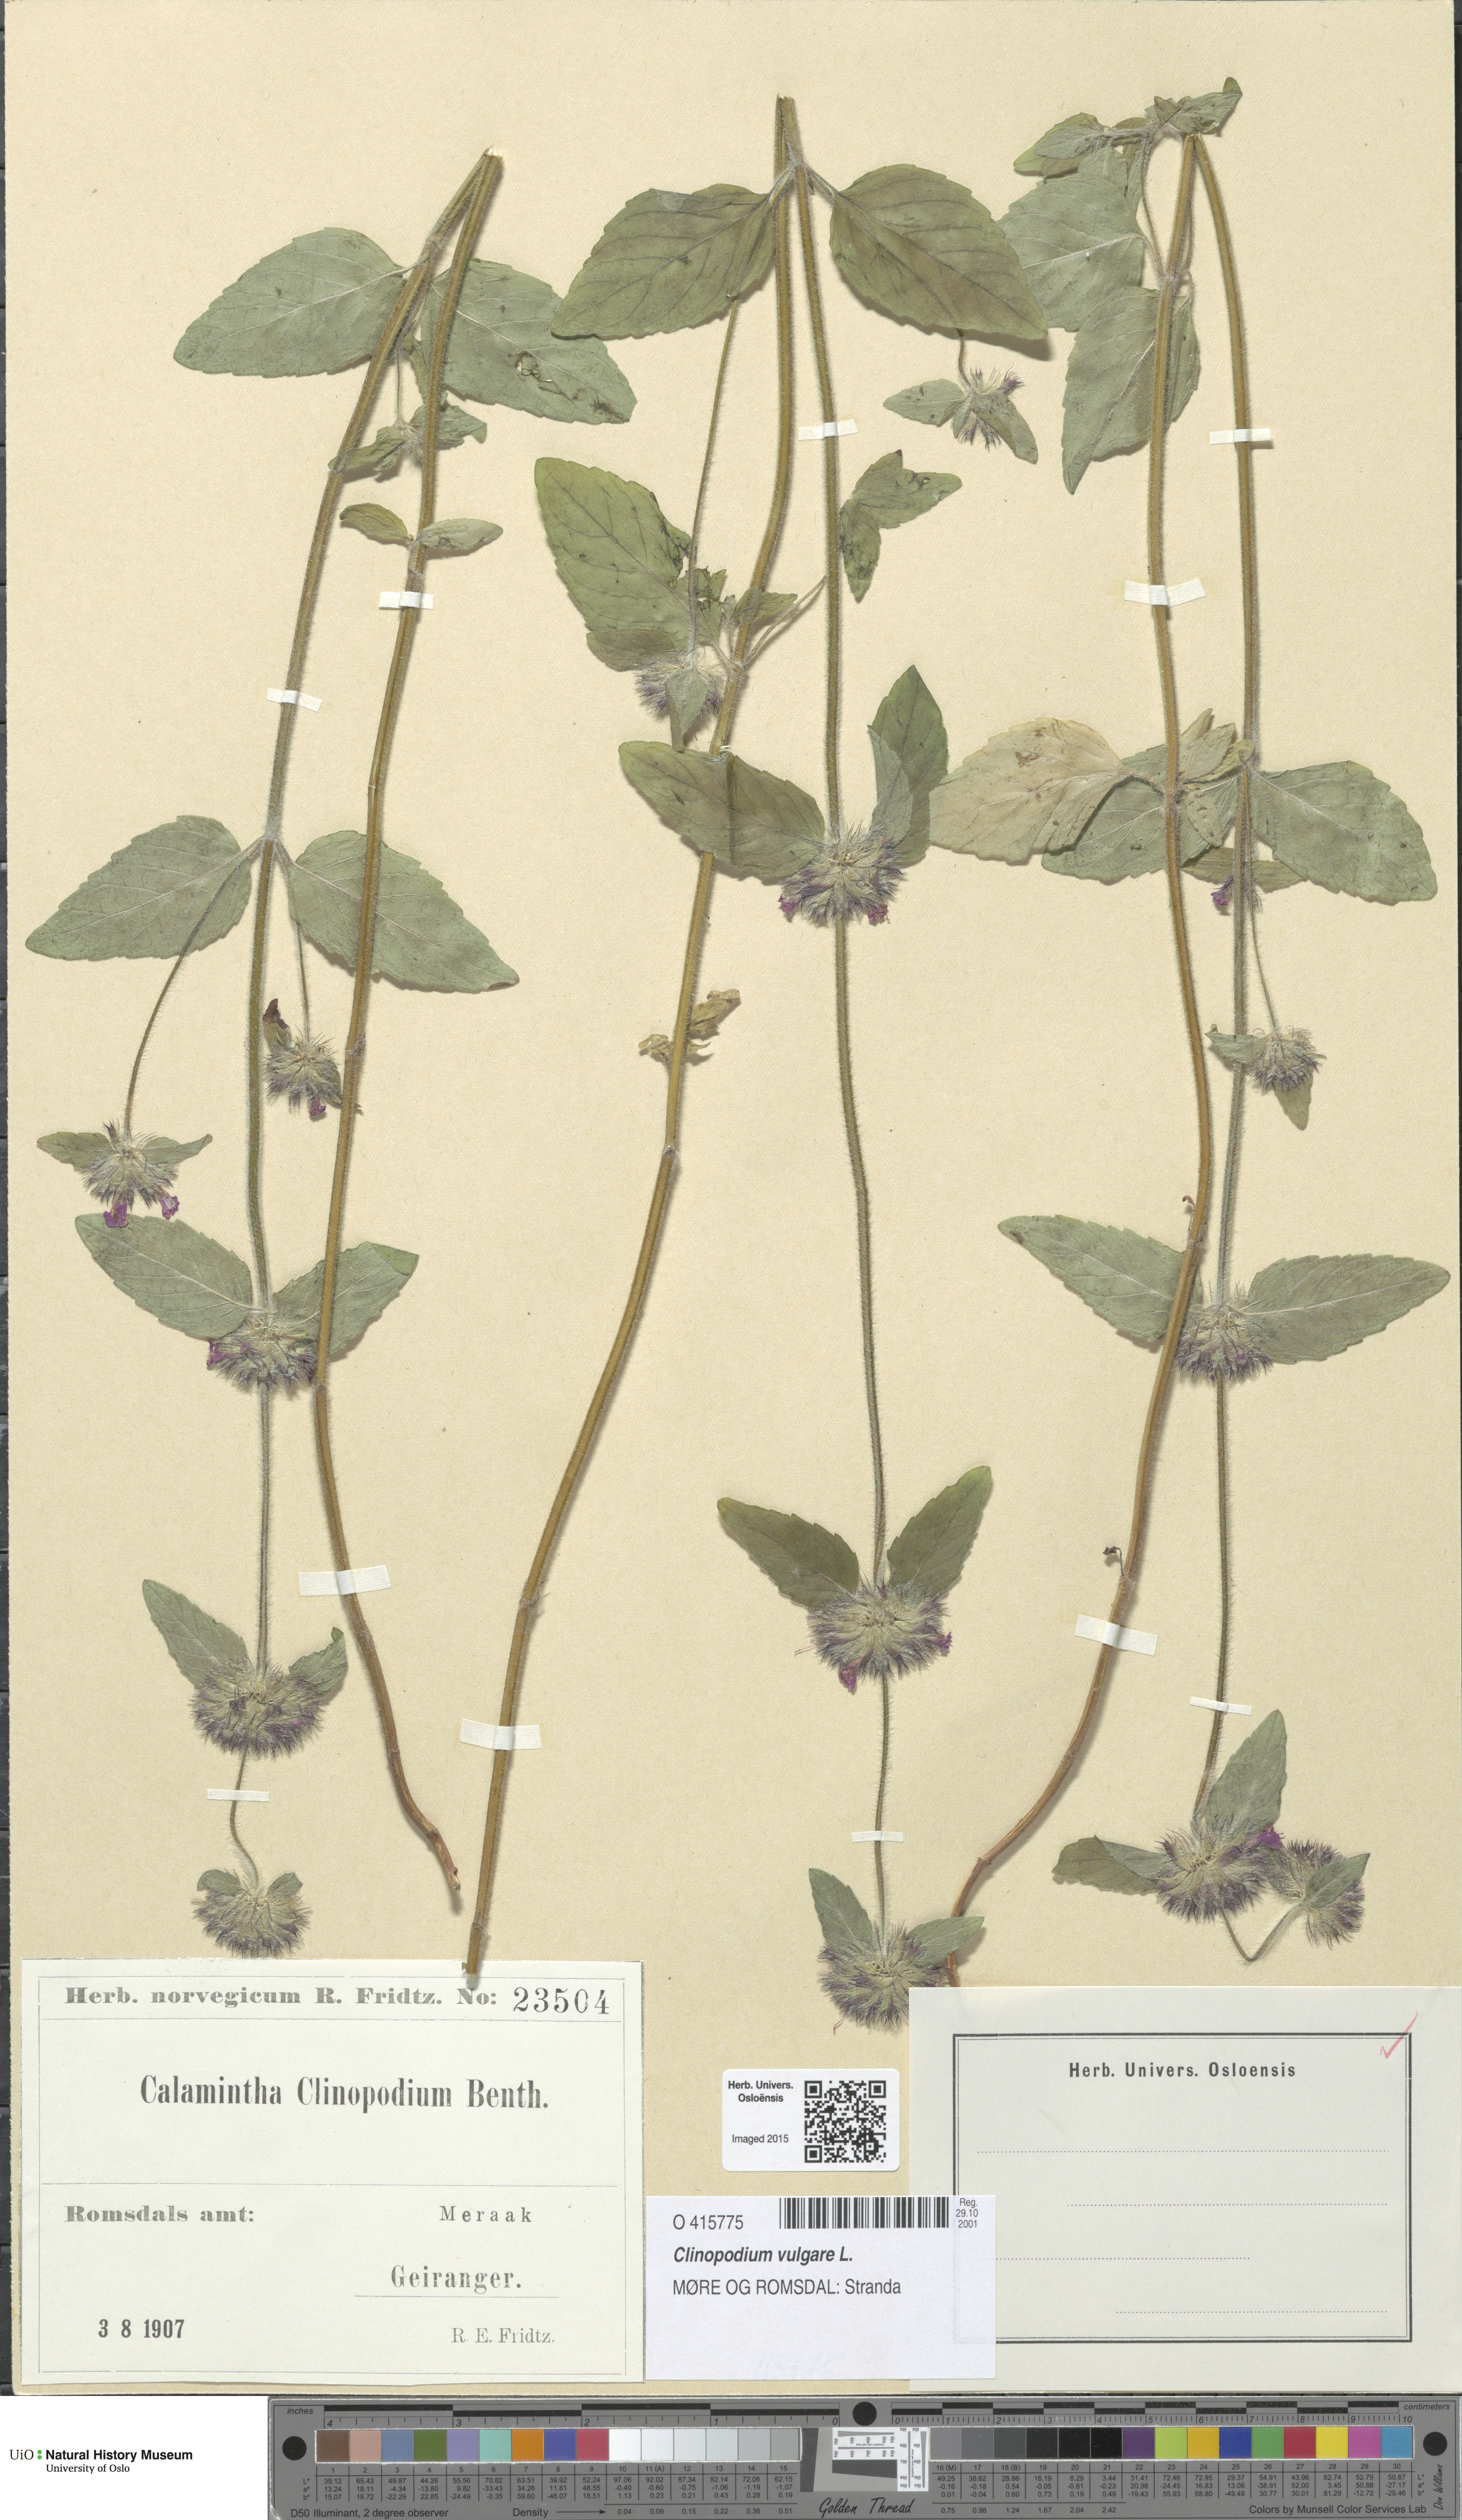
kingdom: Plantae
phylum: Tracheophyta
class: Magnoliopsida
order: Lamiales
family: Lamiaceae
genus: Clinopodium
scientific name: Clinopodium vulgare
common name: Wild basil
